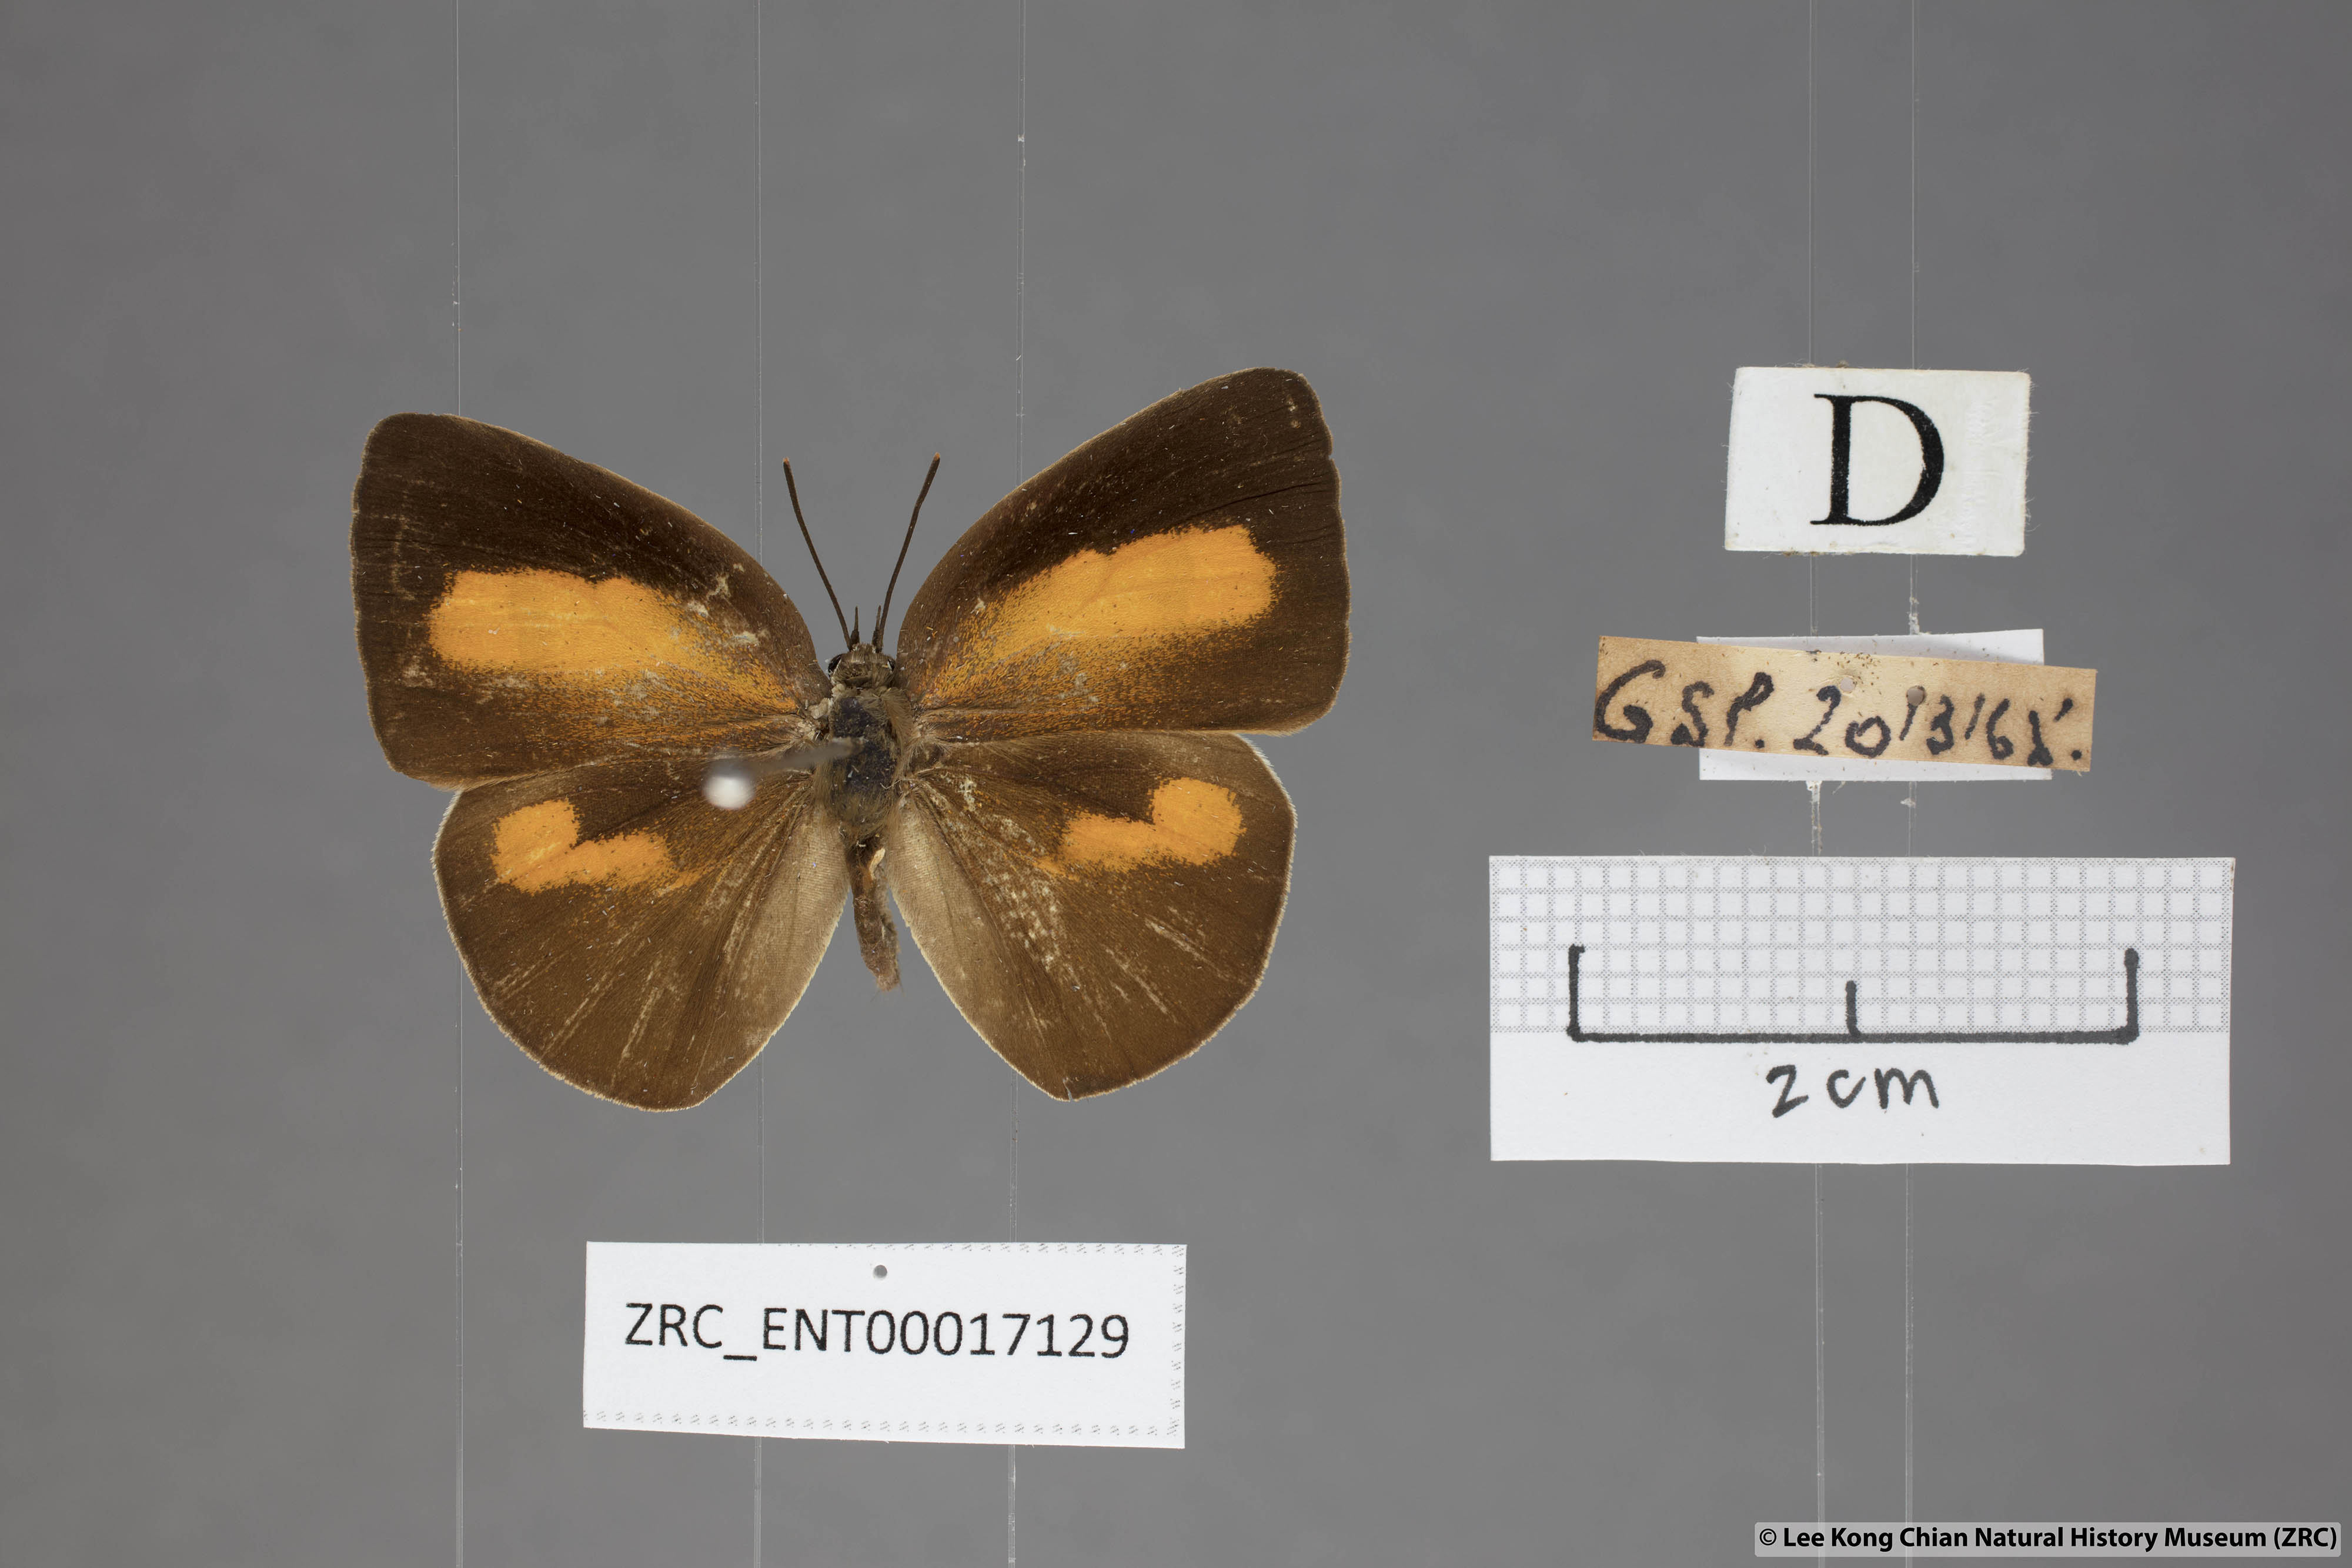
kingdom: Animalia
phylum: Arthropoda
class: Insecta
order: Lepidoptera
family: Lycaenidae
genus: Curetis
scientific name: Curetis freda
